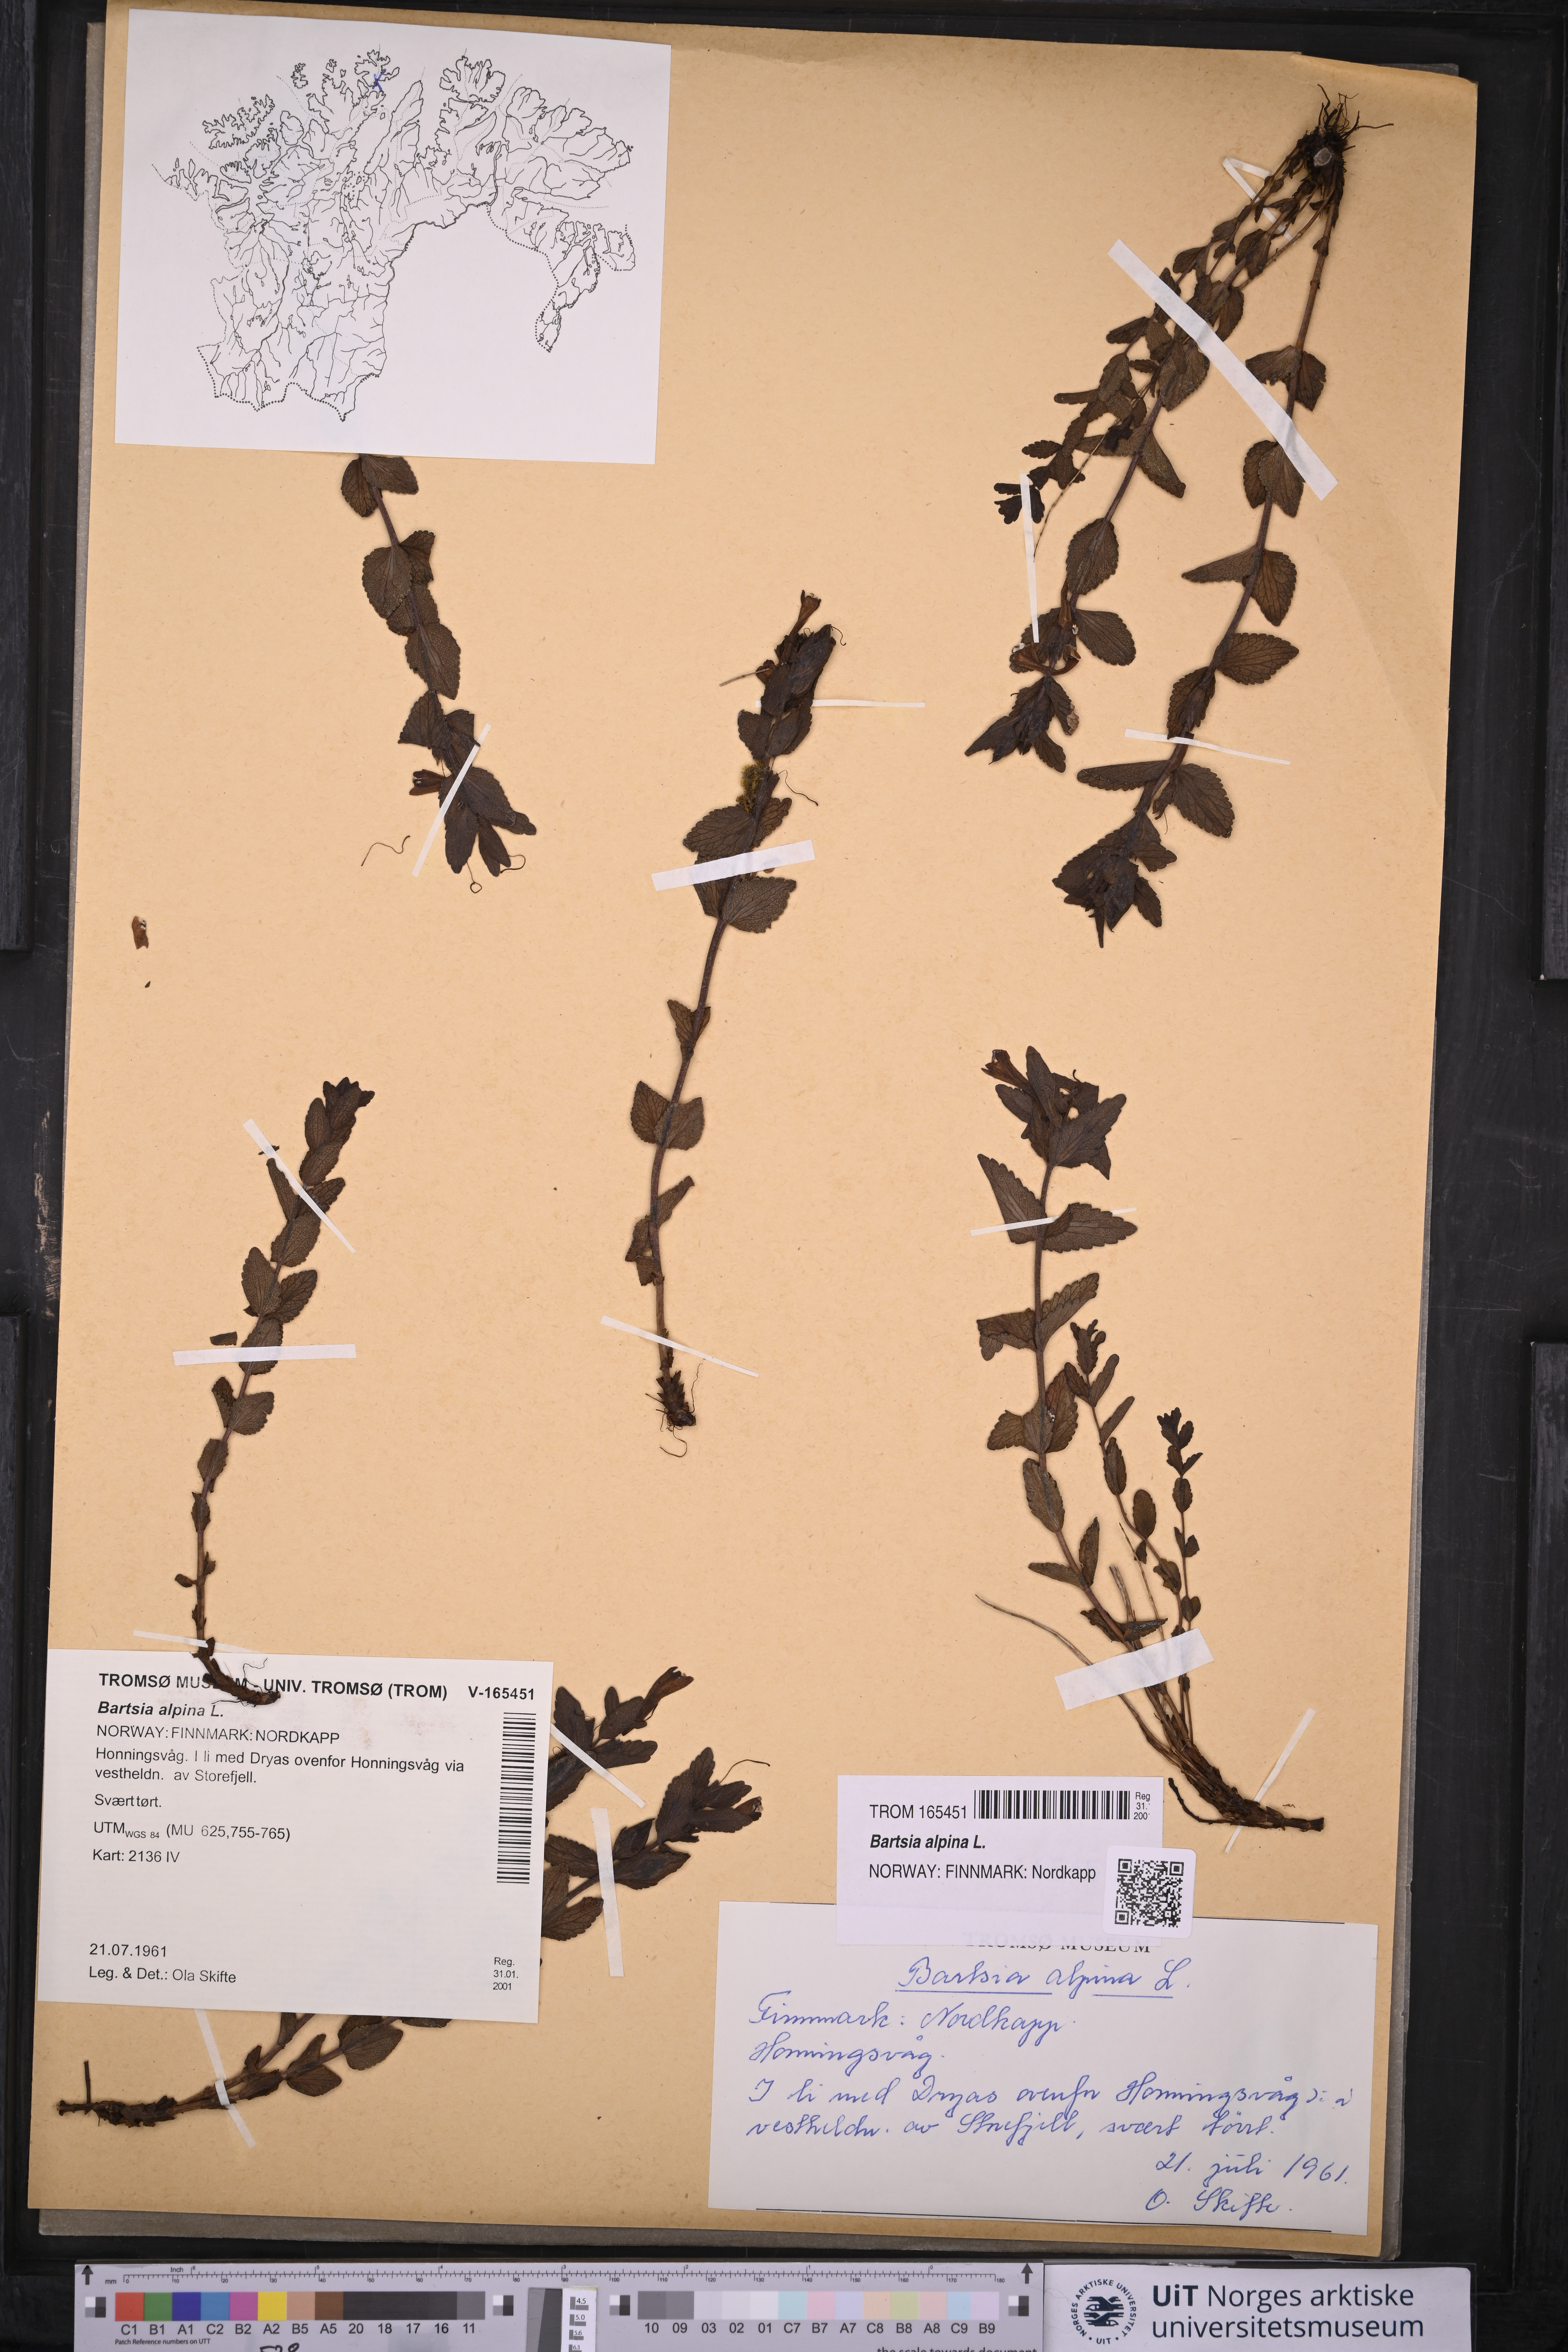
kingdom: Plantae
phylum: Tracheophyta
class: Magnoliopsida
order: Lamiales
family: Orobanchaceae
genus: Bartsia
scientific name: Bartsia alpina
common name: Alpine bartsia
